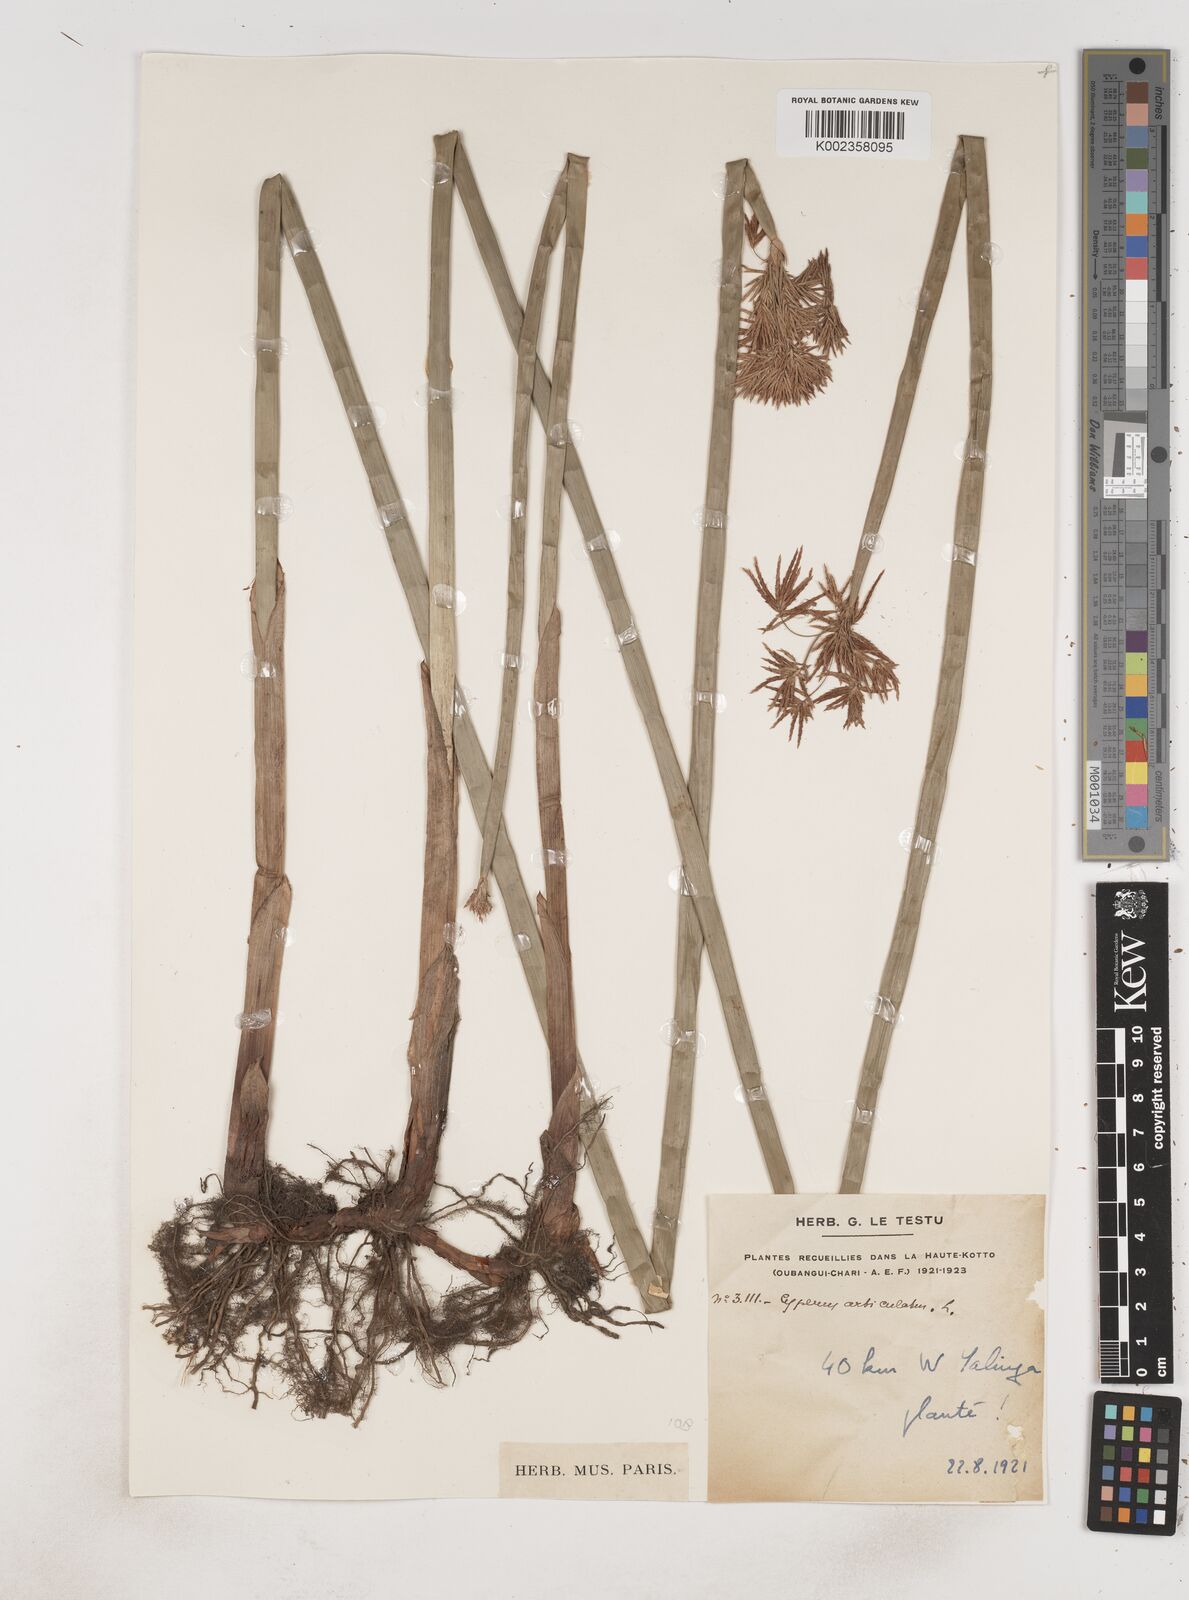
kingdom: Plantae
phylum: Tracheophyta
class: Liliopsida
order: Poales
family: Cyperaceae
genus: Cyperus
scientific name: Cyperus articulatus
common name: Jointed flatsedge
